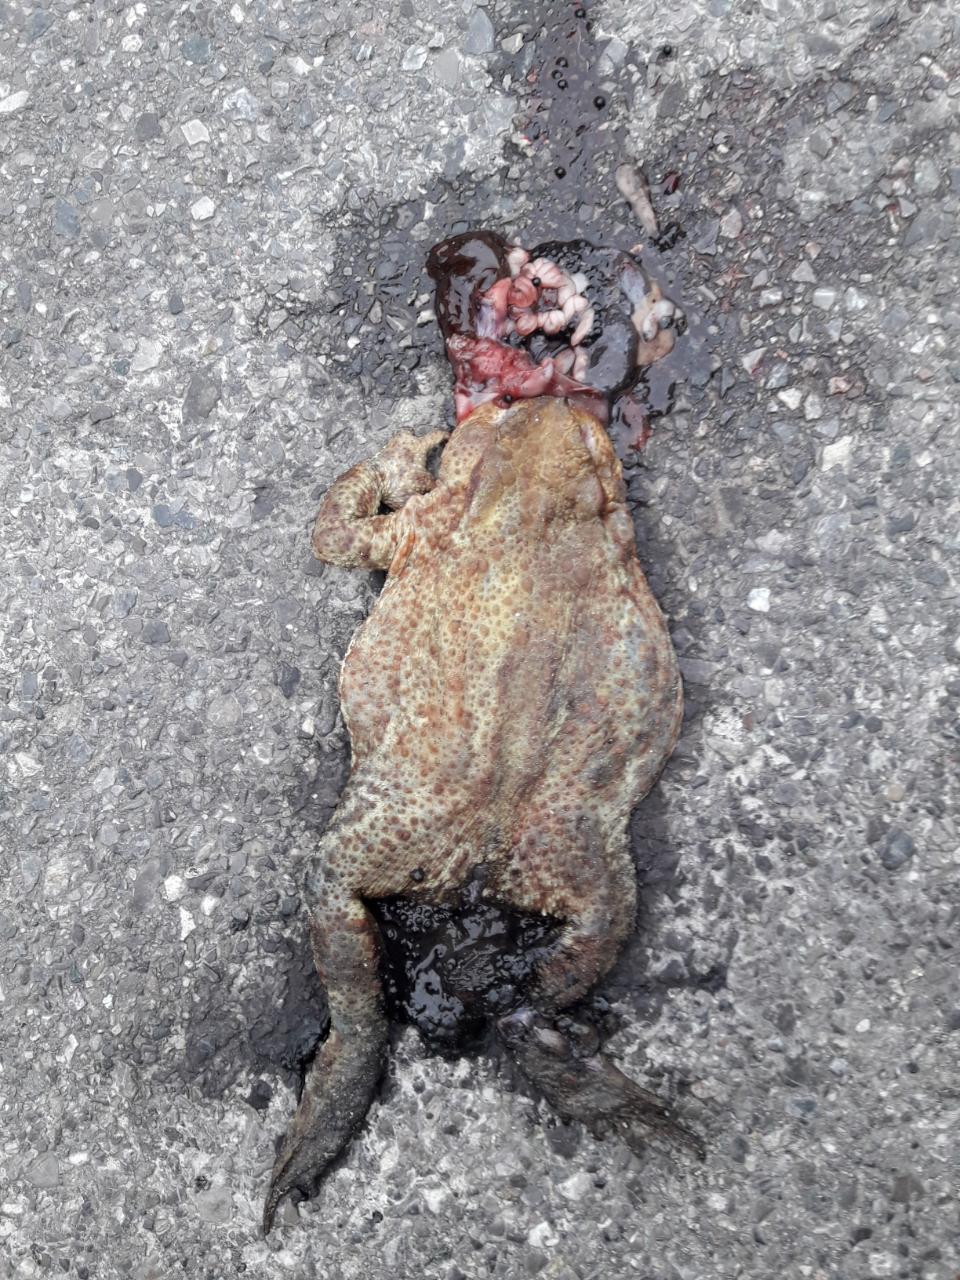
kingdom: Animalia
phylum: Chordata
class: Amphibia
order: Anura
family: Bufonidae
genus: Bufo
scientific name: Bufo bufo
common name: Common toad
